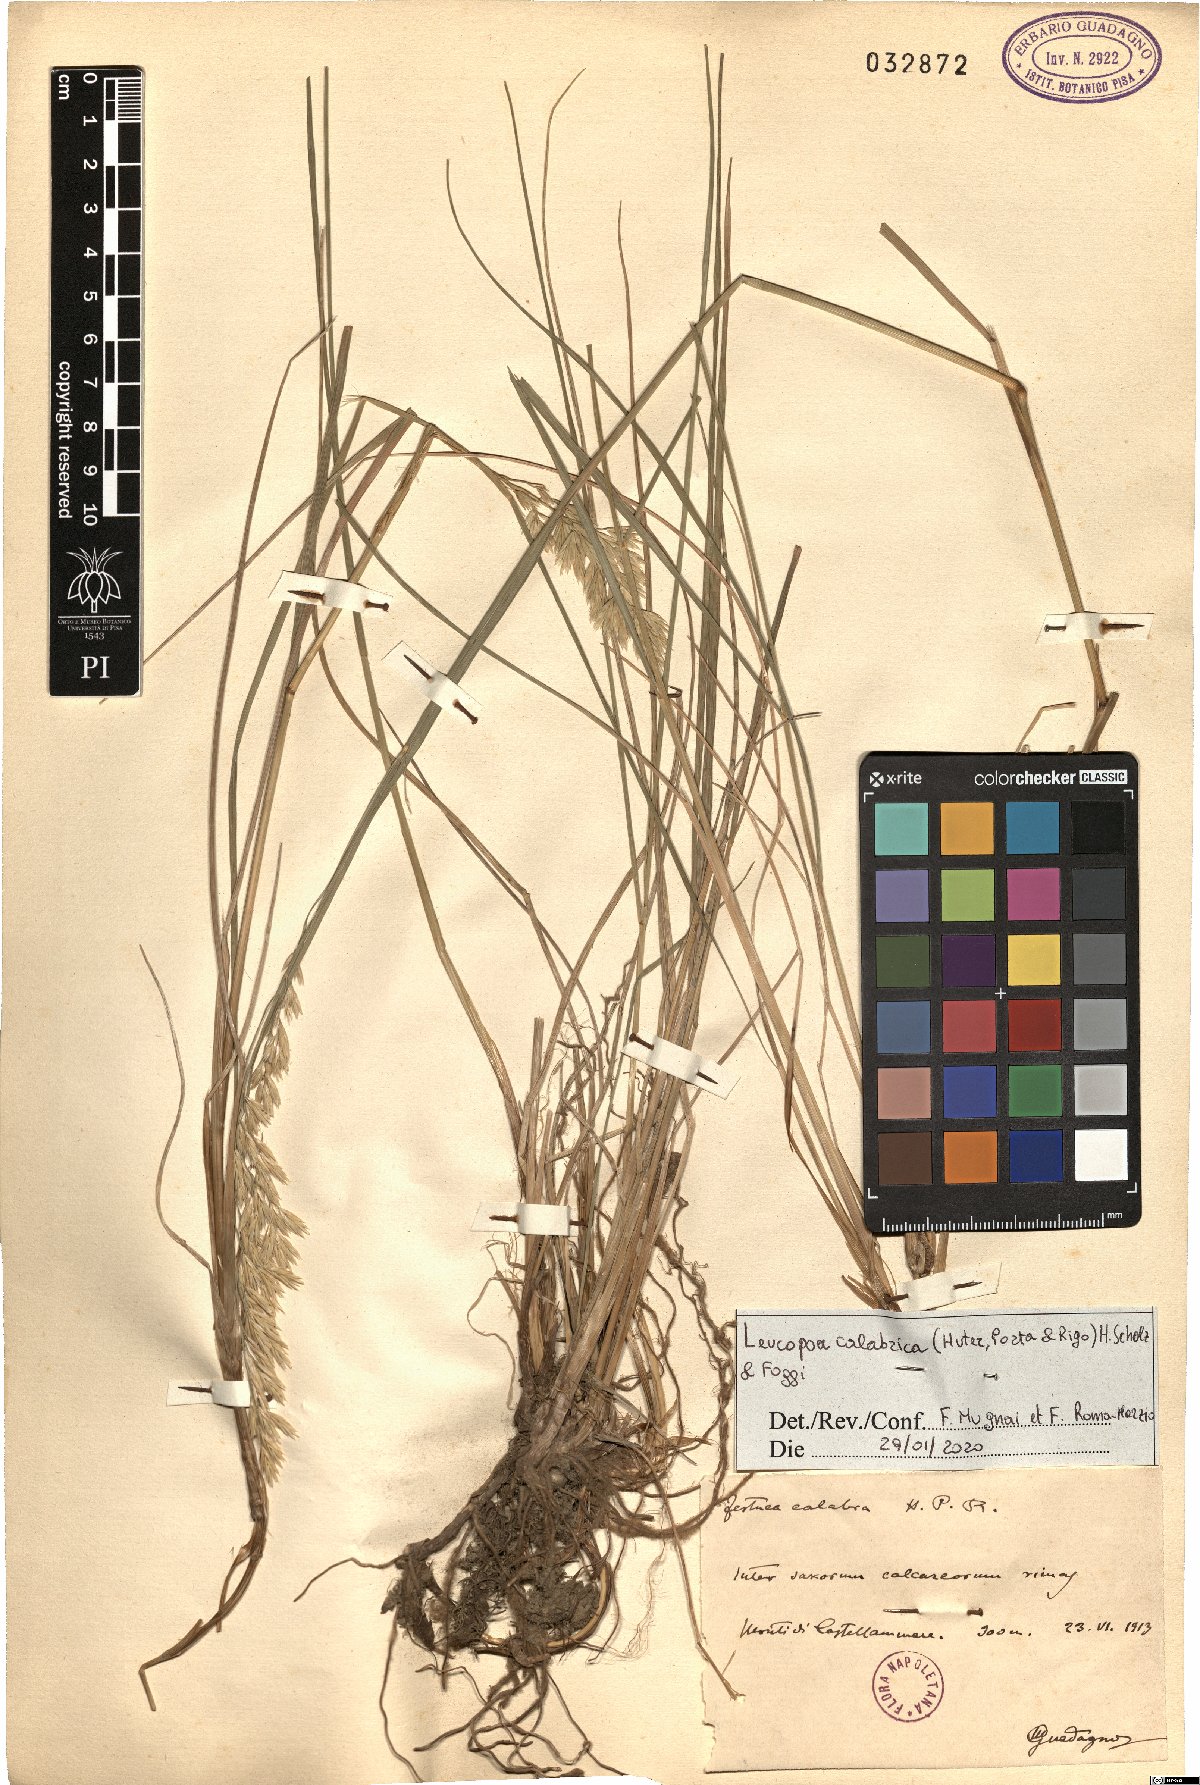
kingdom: Plantae
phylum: Tracheophyta
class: Liliopsida
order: Poales
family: Poaceae
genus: Festuca
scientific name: Festuca calabrica
